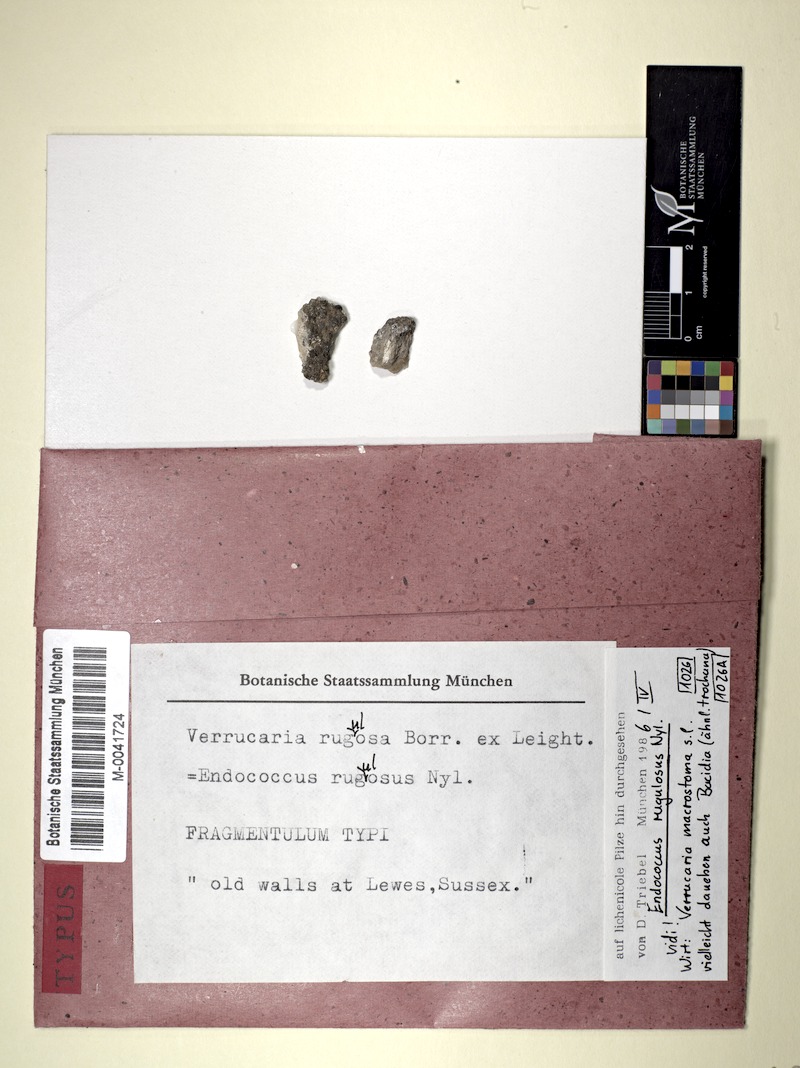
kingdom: Fungi
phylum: Ascomycota
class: Dothideomycetes
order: Dothideales
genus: Endococcus
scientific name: Endococcus rugulosus
